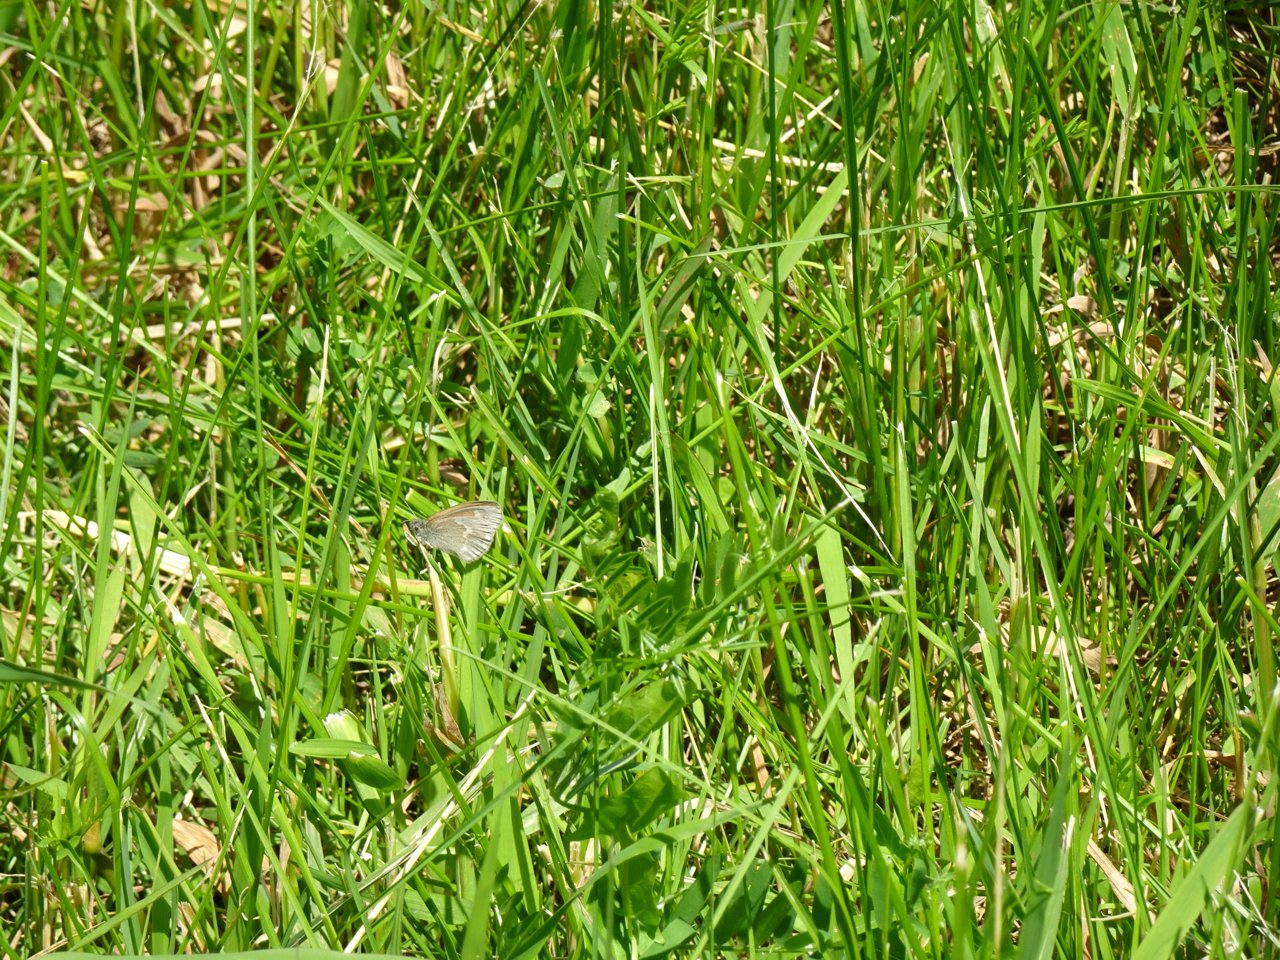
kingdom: Animalia
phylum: Arthropoda
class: Insecta
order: Lepidoptera
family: Nymphalidae
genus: Coenonympha
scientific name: Coenonympha tullia
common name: Large Heath
